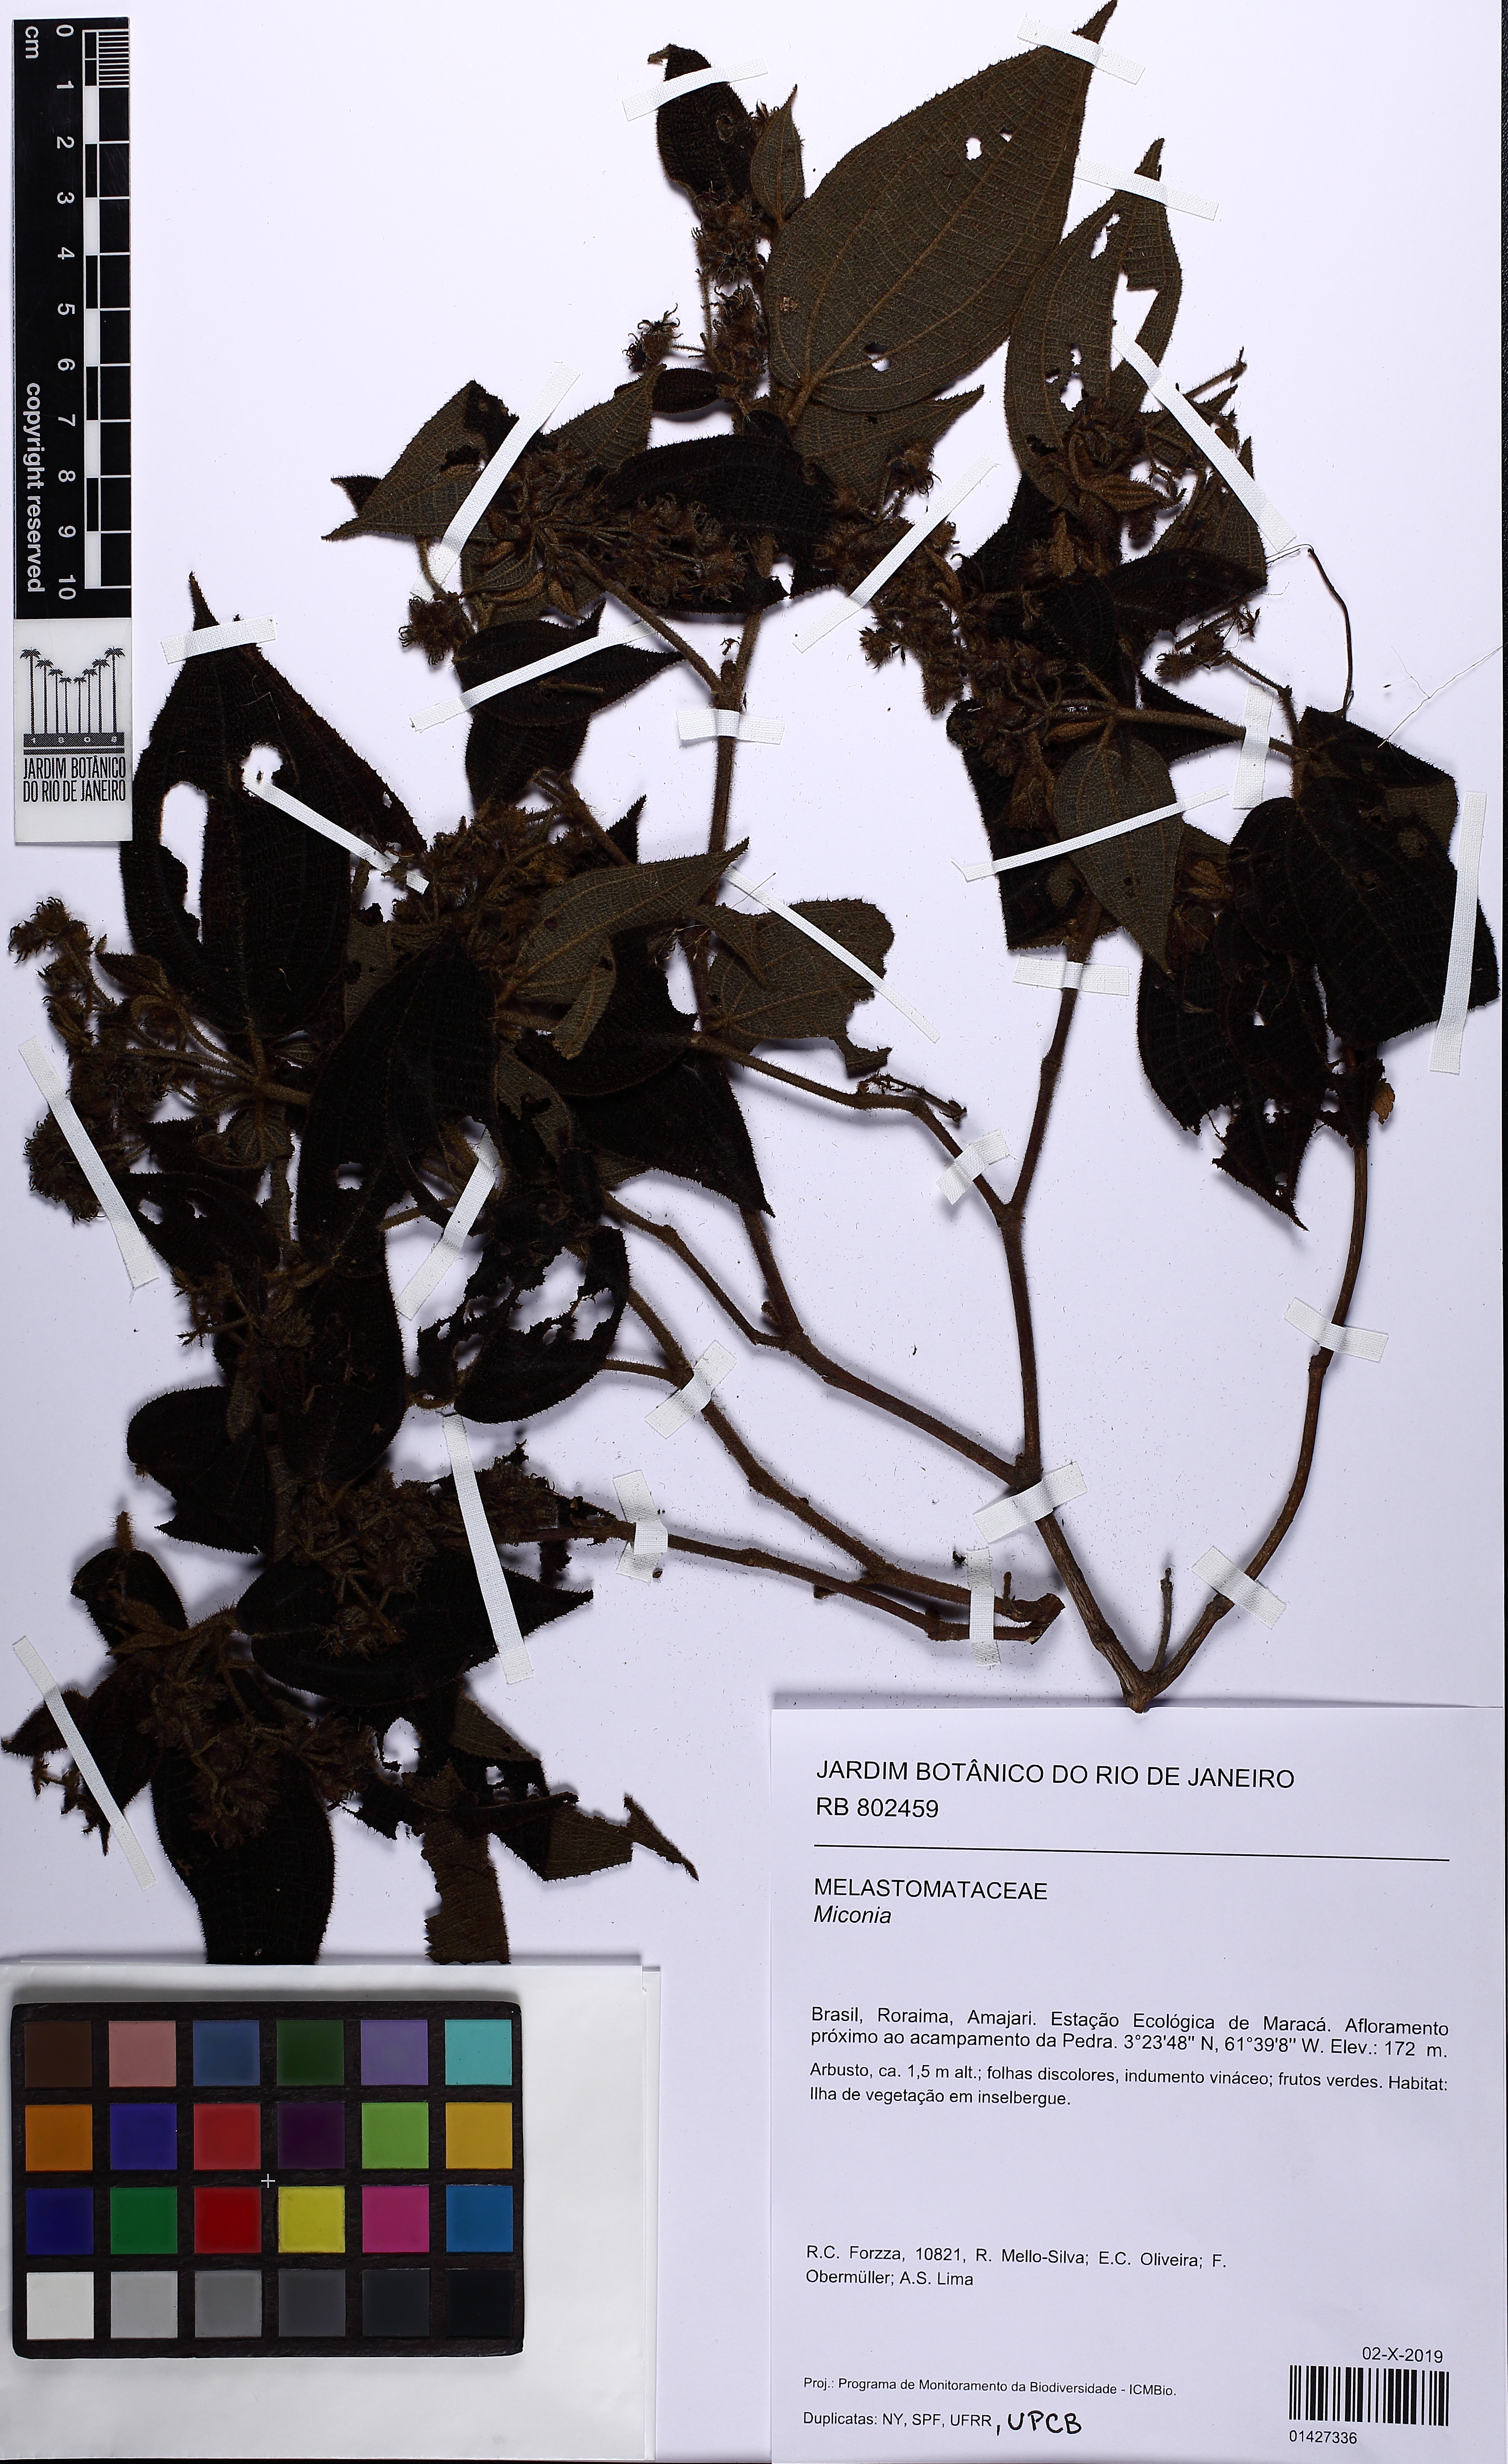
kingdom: Plantae
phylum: Tracheophyta
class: Magnoliopsida
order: Myrtales
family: Melastomataceae
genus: Miconia
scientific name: Miconia
